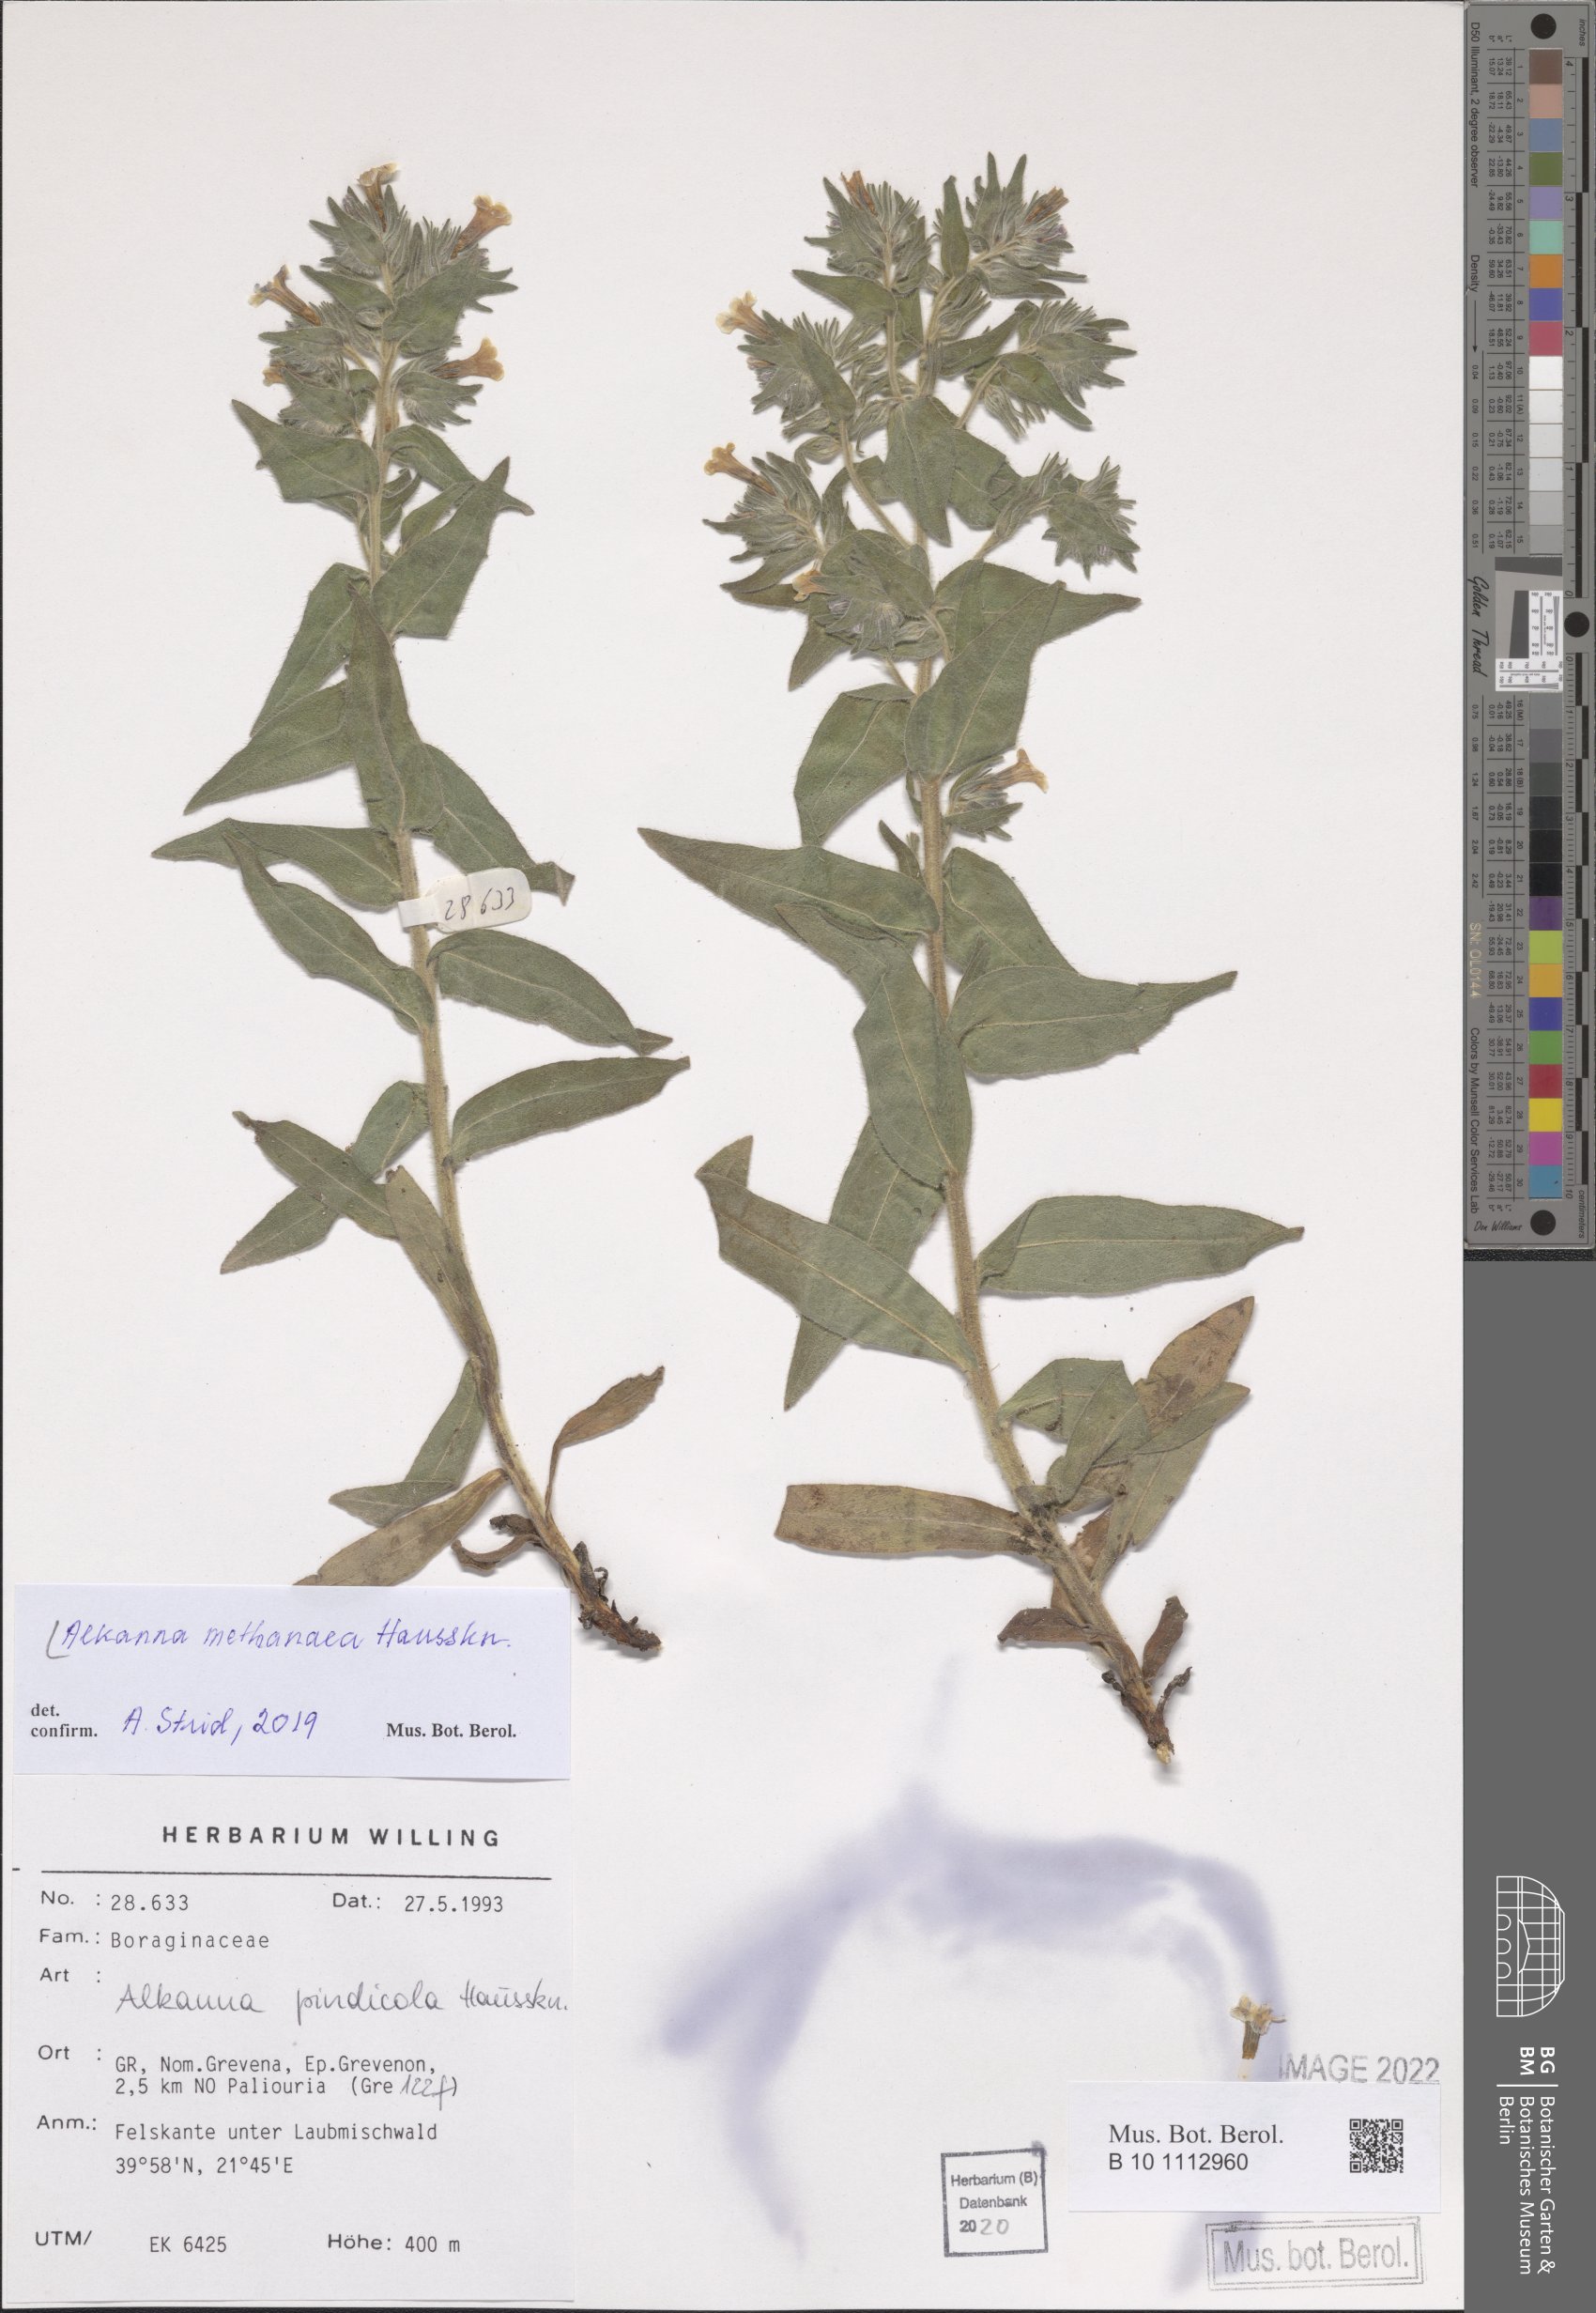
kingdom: Plantae
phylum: Tracheophyta
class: Magnoliopsida
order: Boraginales
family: Boraginaceae
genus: Alkanna
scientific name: Alkanna methanaea
